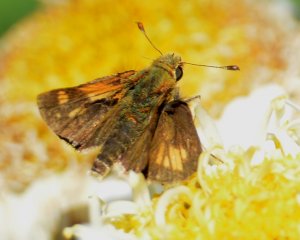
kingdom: Animalia
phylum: Arthropoda
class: Insecta
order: Lepidoptera
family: Hesperiidae
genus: Polites
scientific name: Polites coras
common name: Peck's Skipper
